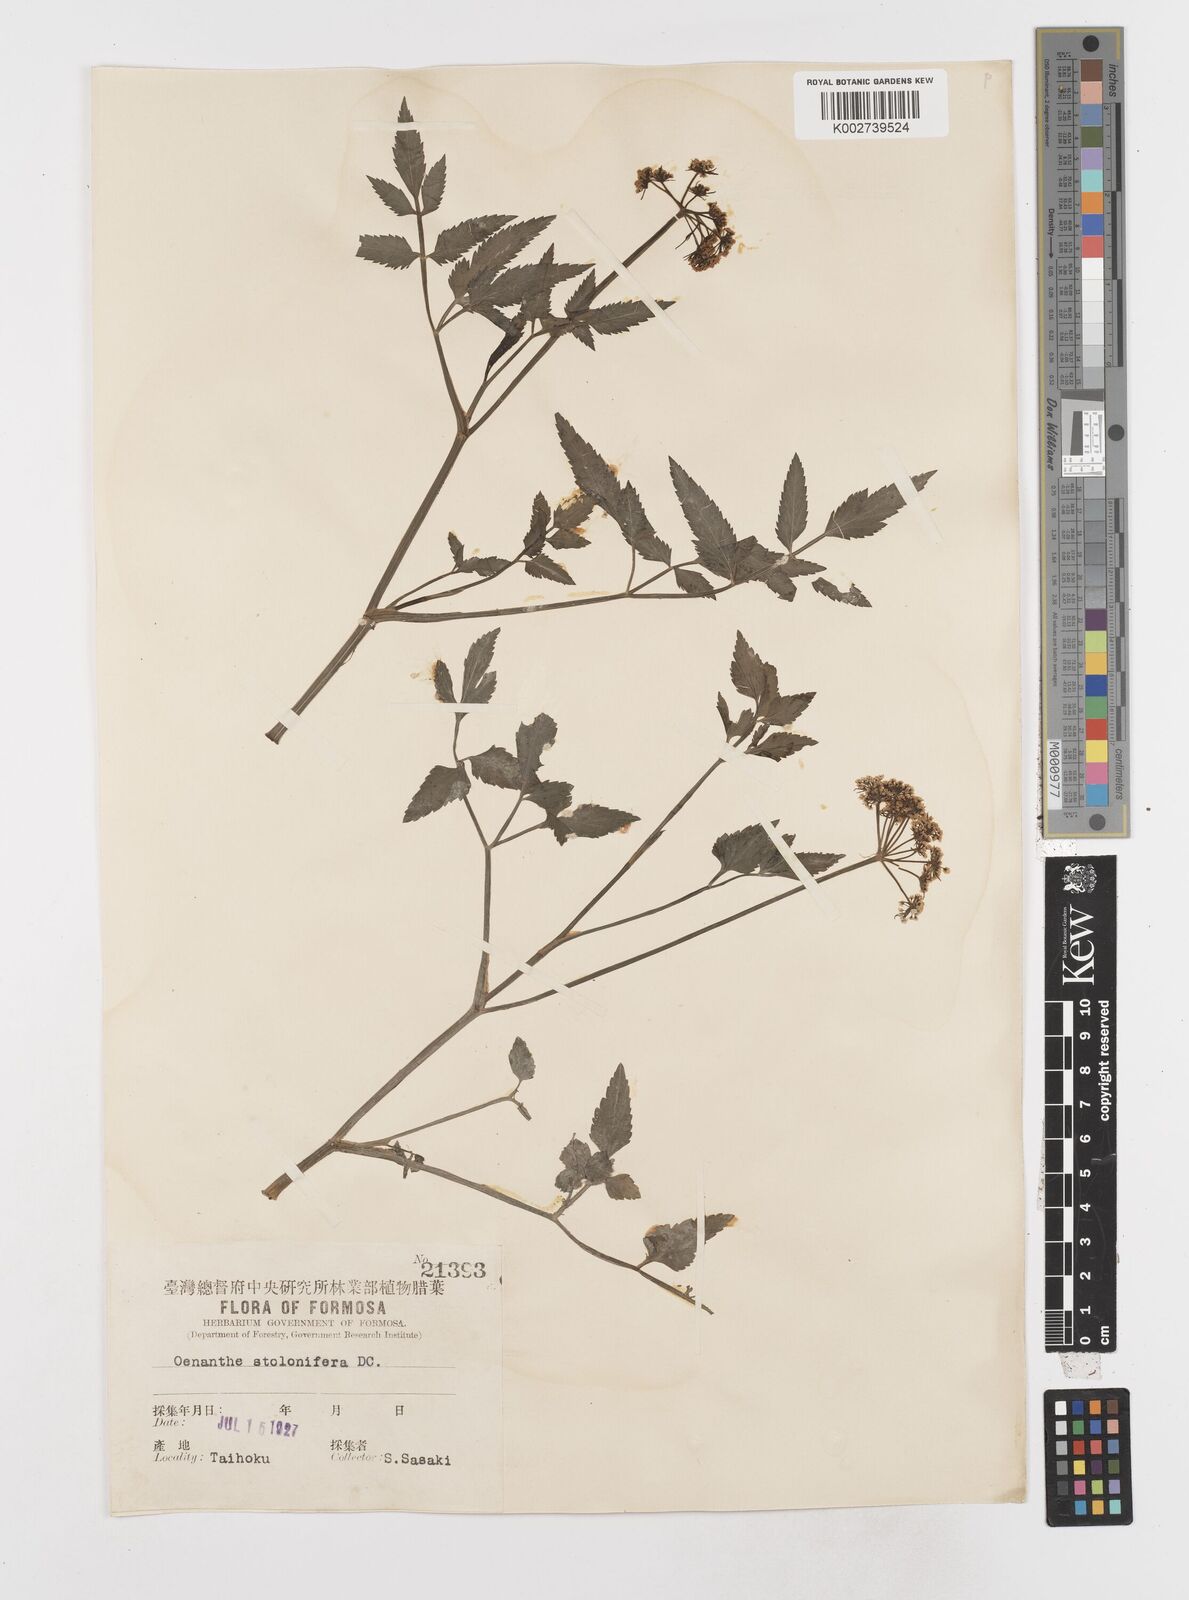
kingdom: Plantae
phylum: Tracheophyta
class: Magnoliopsida
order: Apiales
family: Apiaceae
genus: Oenanthe
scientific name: Oenanthe javanica
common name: Java water-dropwort
